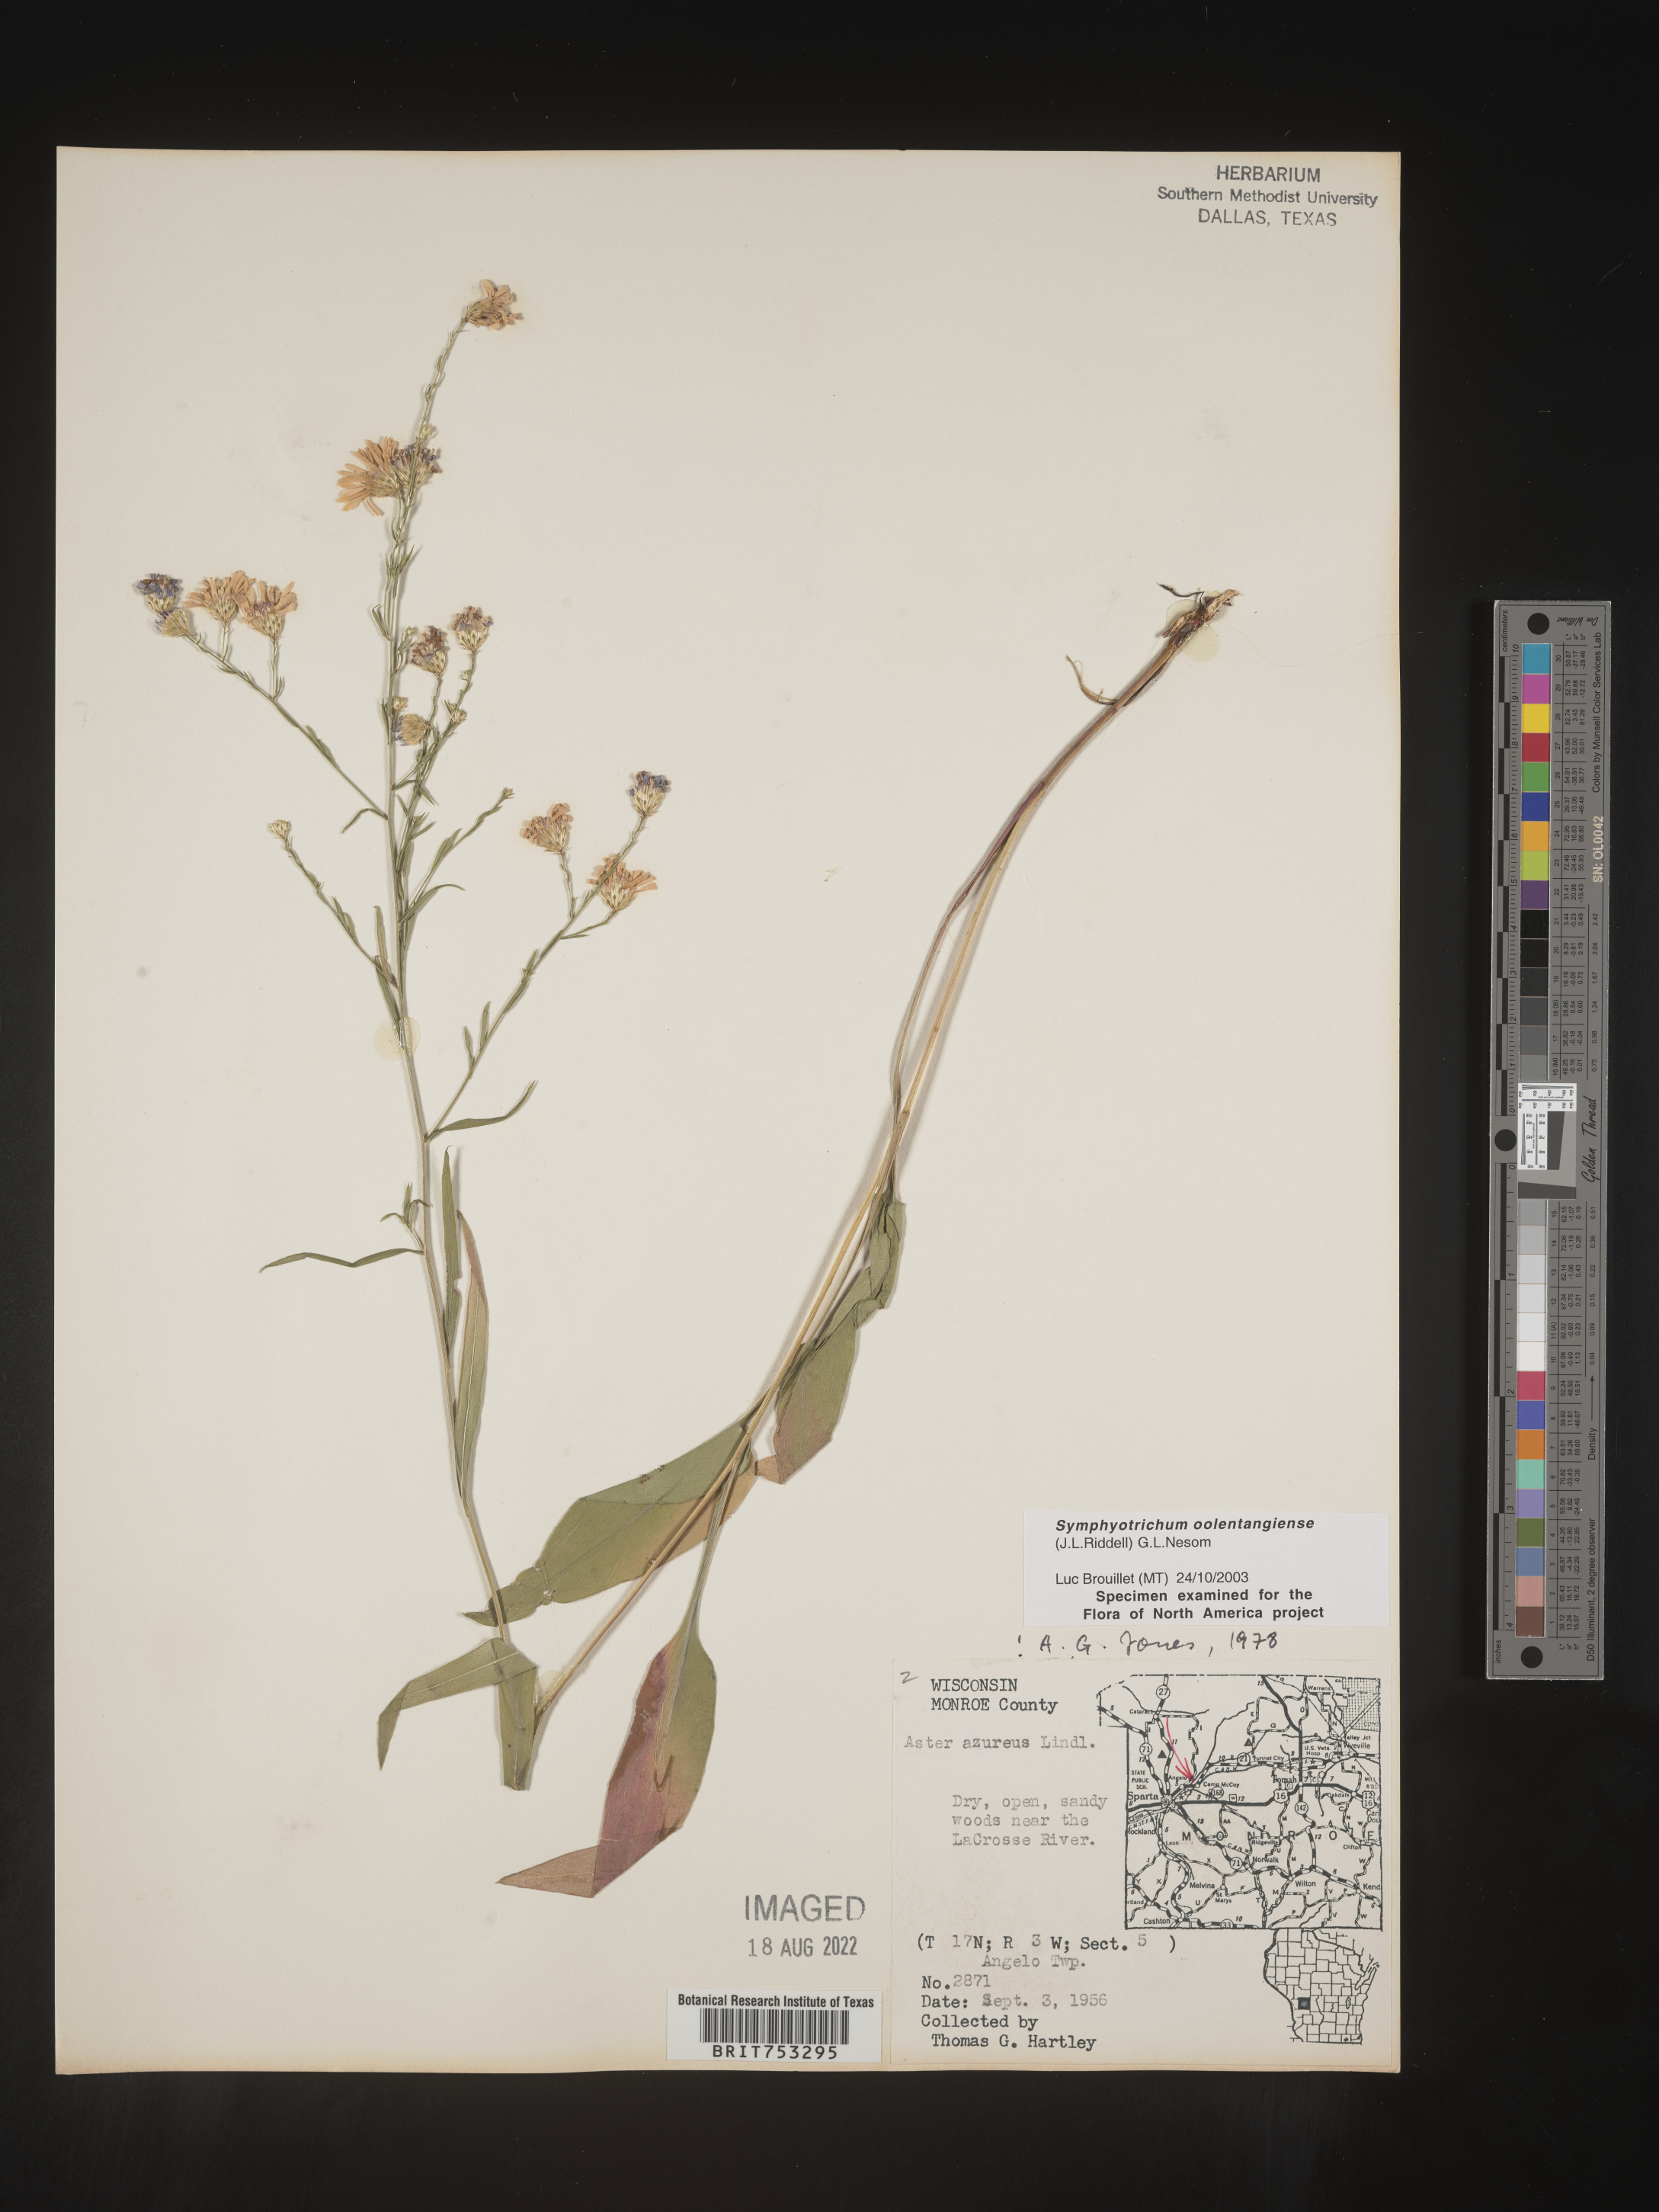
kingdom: Plantae
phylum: Tracheophyta
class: Magnoliopsida
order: Asterales
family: Asteraceae
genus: Symphyotrichum
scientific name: Symphyotrichum oolentangiense
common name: Azure aster
